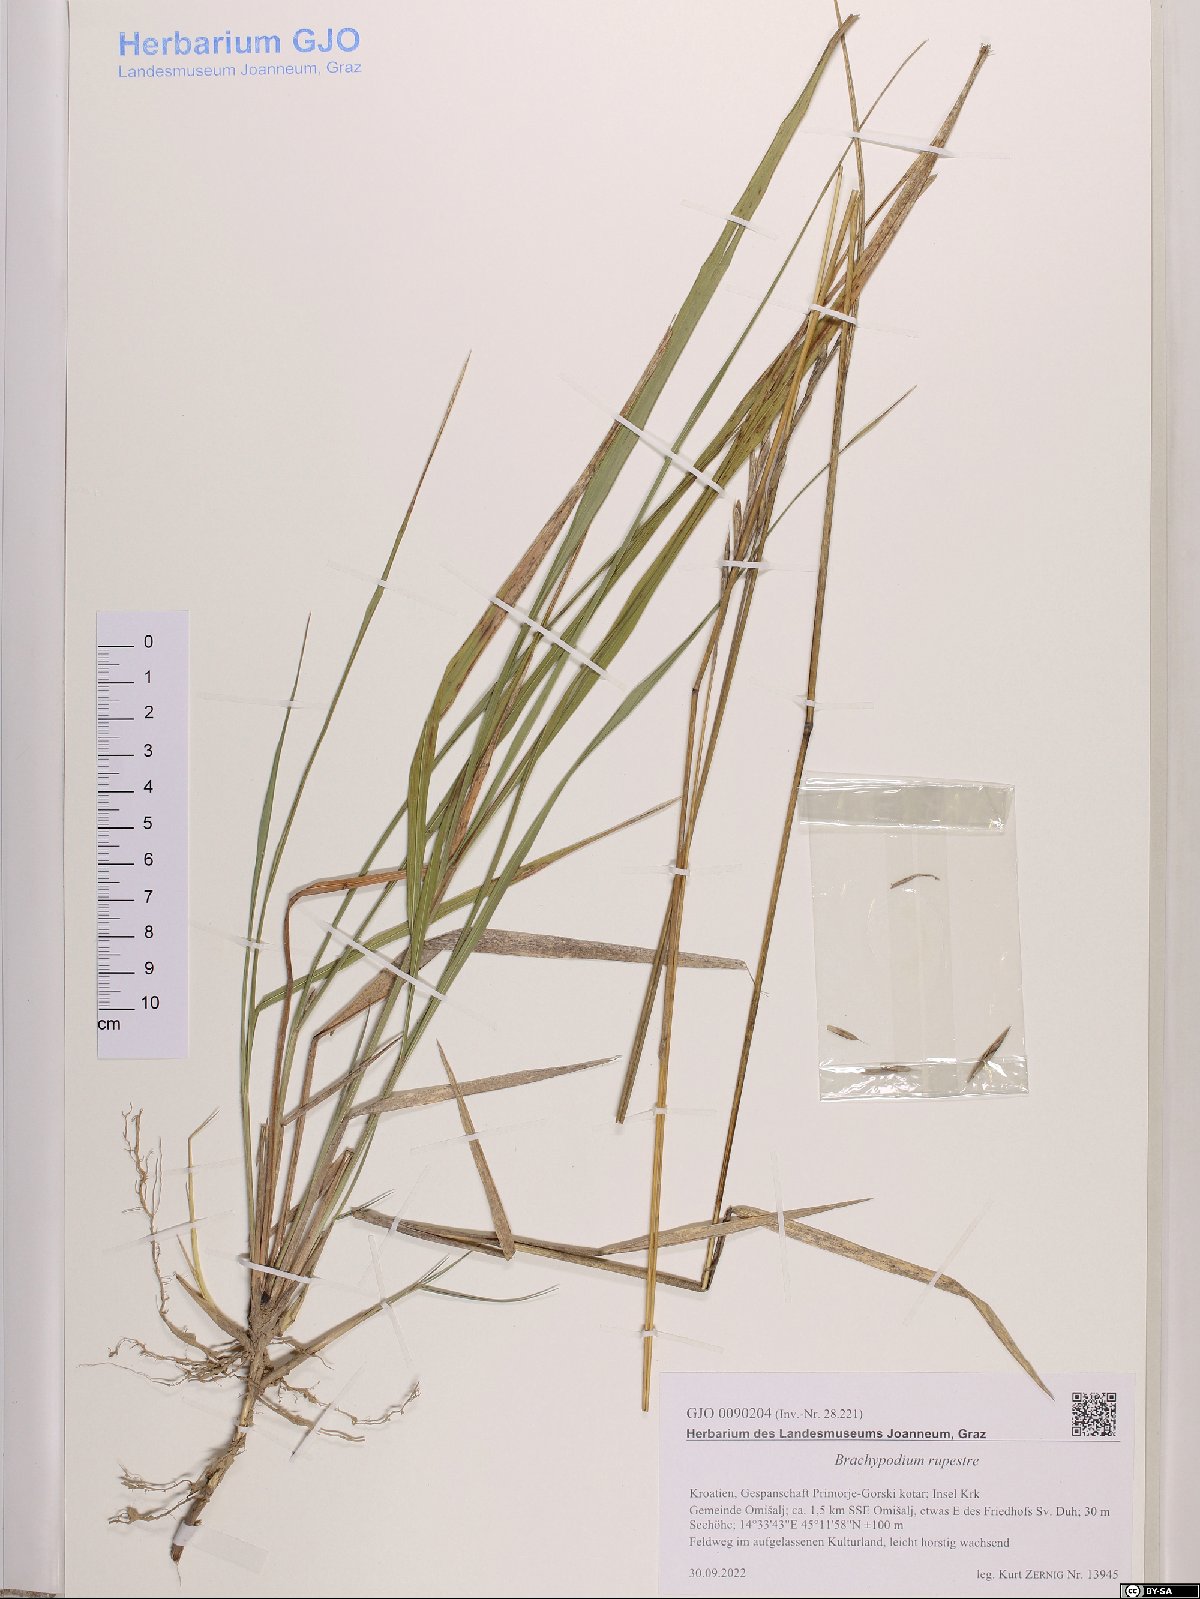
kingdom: Plantae
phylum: Tracheophyta
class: Liliopsida
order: Poales
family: Poaceae
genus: Brachypodium
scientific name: Brachypodium pinnatum
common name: Tor grass
